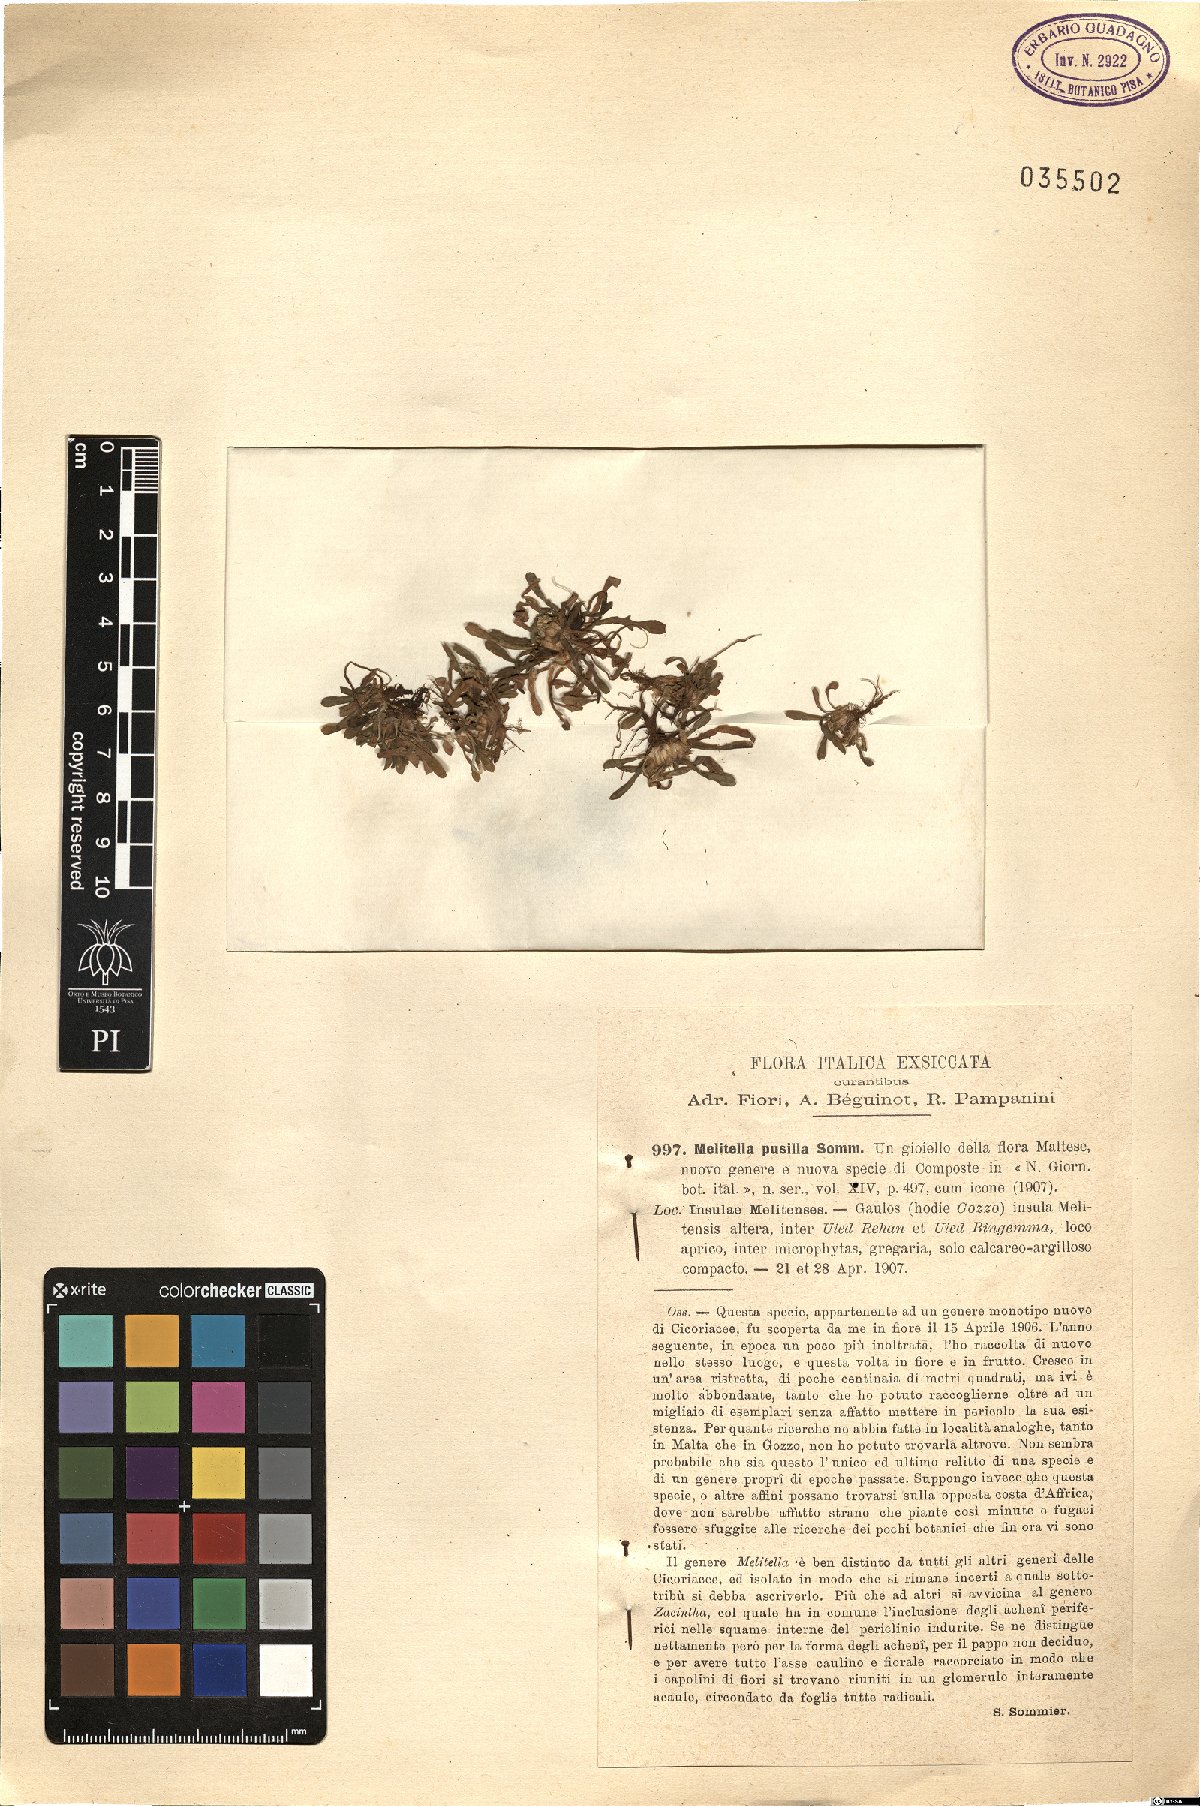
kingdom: Plantae
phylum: Tracheophyta
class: Magnoliopsida
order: Asterales
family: Asteraceae
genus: Crepis
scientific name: Crepis pusilla
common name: Dandelion crepis
